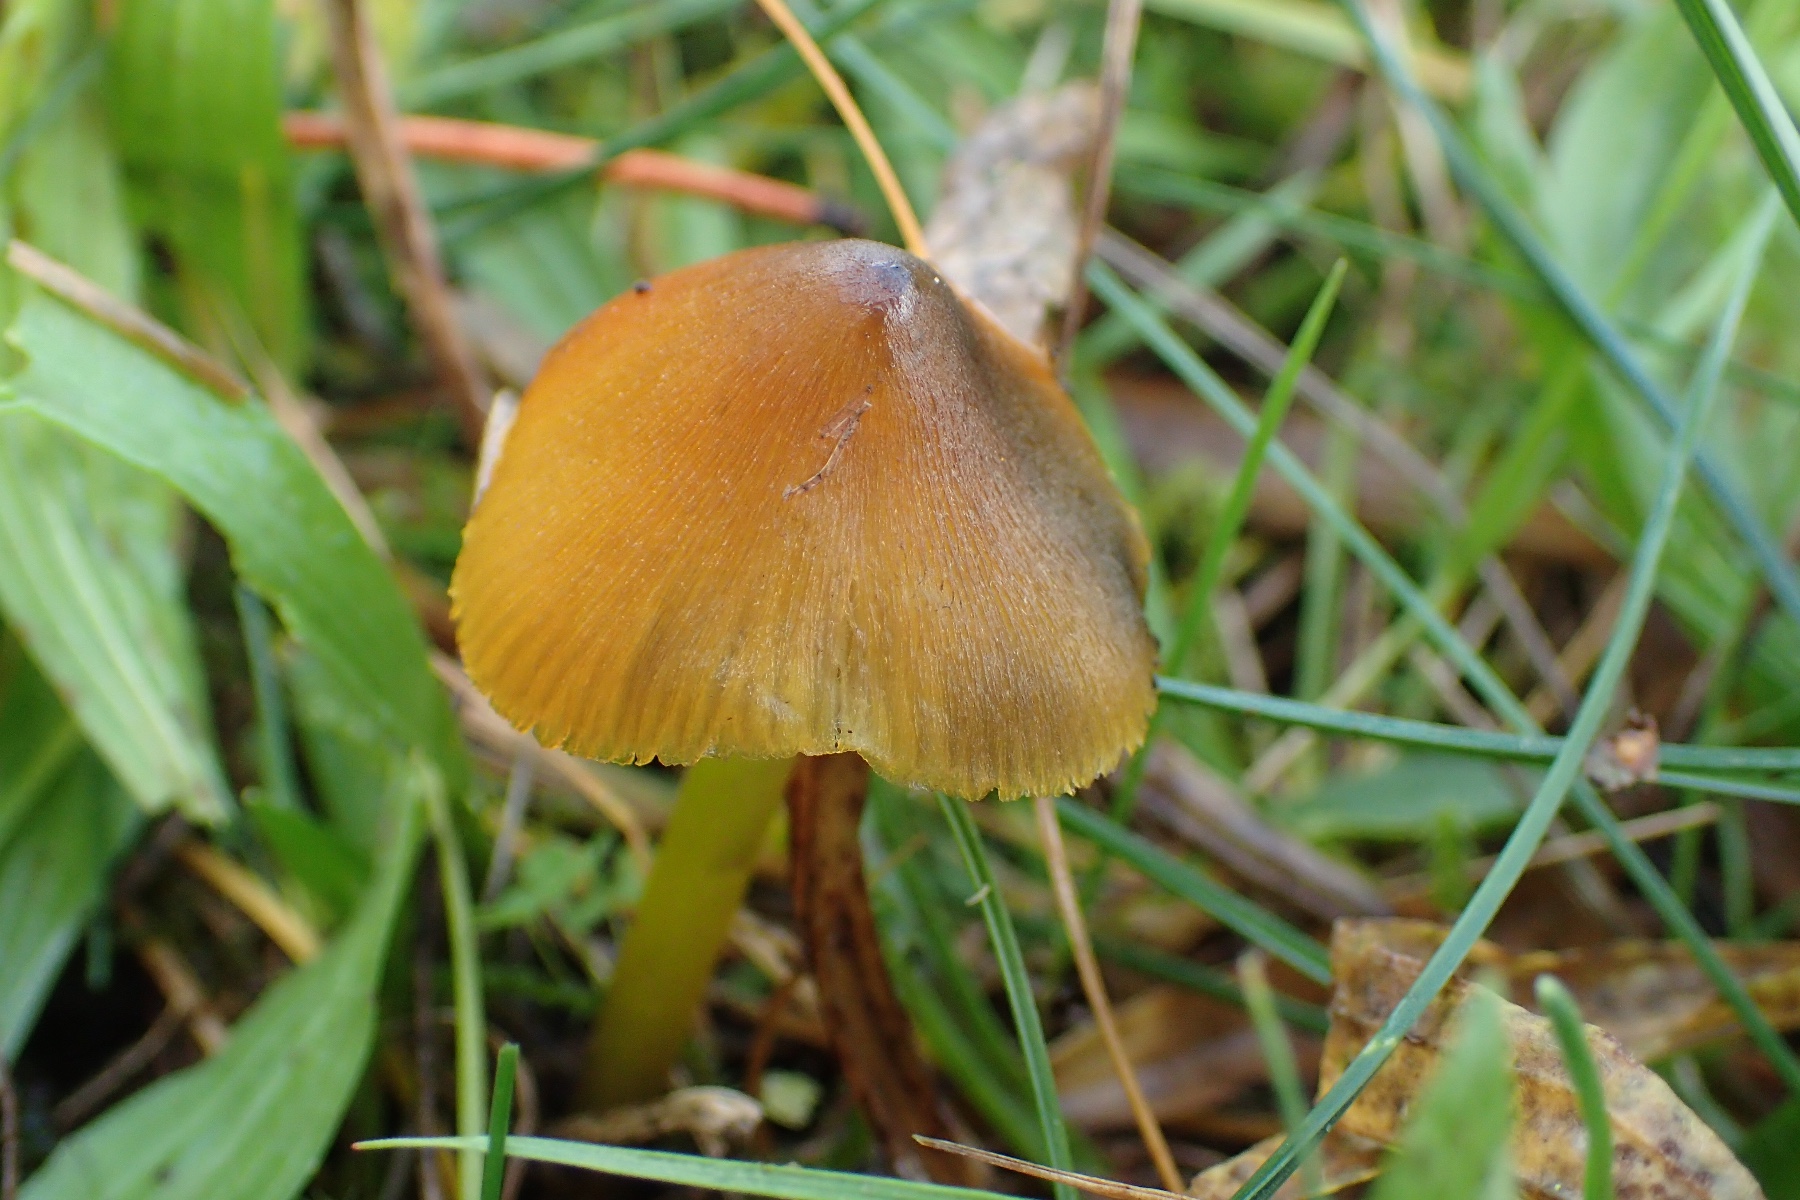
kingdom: Fungi
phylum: Basidiomycota
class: Agaricomycetes
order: Agaricales
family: Hygrophoraceae
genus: Hygrocybe
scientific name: Hygrocybe conica
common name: kegle-vokshat
